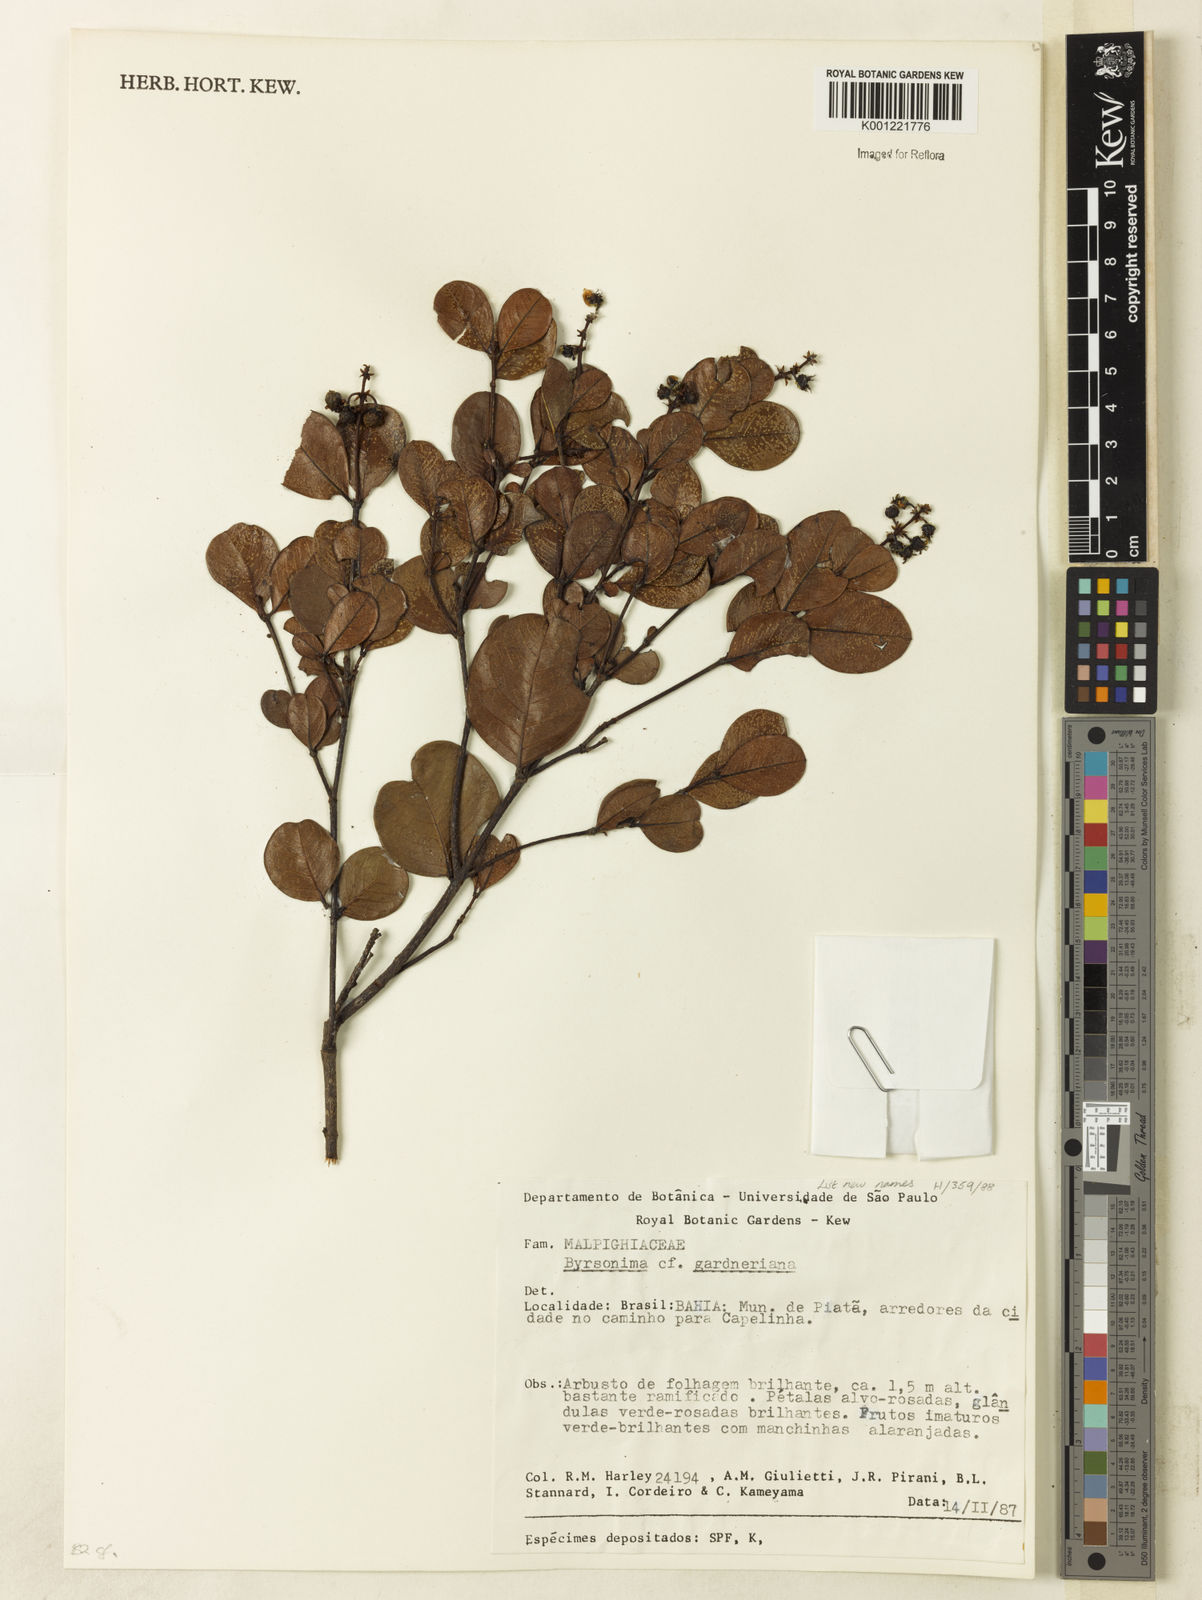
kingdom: Plantae
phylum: Tracheophyta
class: Magnoliopsida
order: Malpighiales
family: Malpighiaceae
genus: Byrsonima
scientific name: Byrsonima gardneriana
